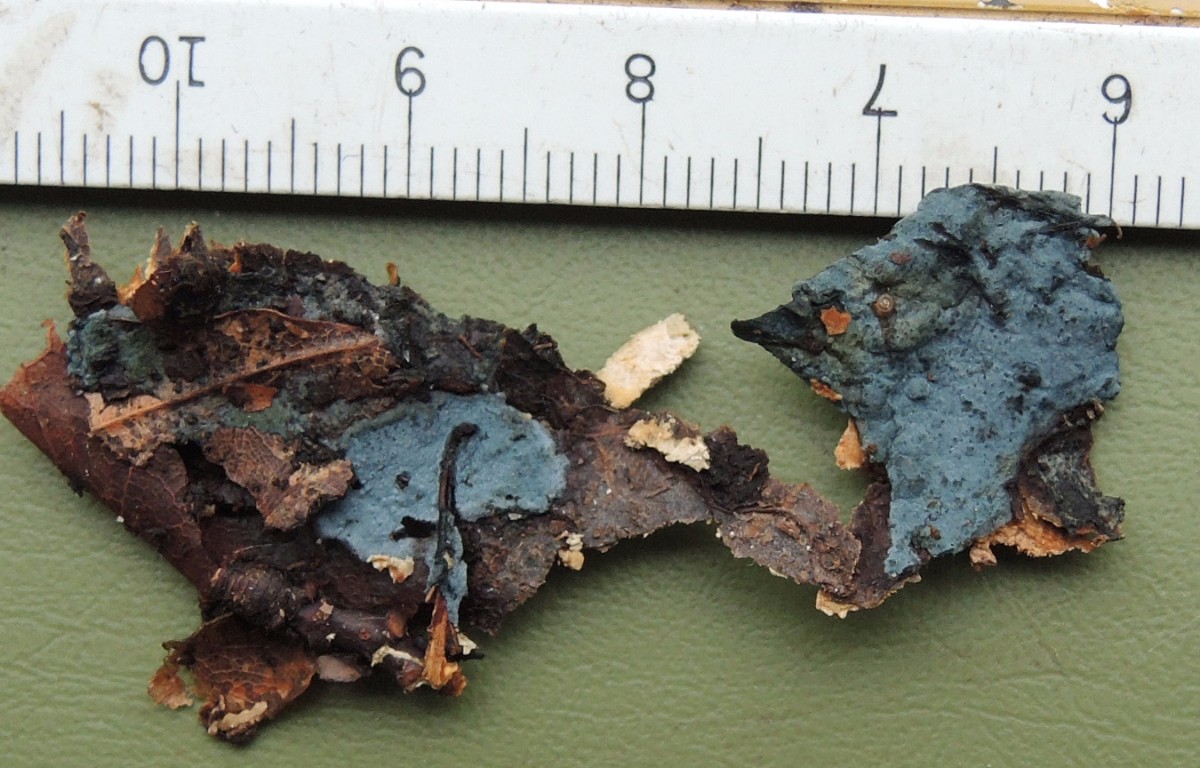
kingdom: Fungi
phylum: Basidiomycota
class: Agaricomycetes
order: Atheliales
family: Atheliaceae
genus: Byssocorticium
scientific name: Byssocorticium atrovirens
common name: blå førnehinde
